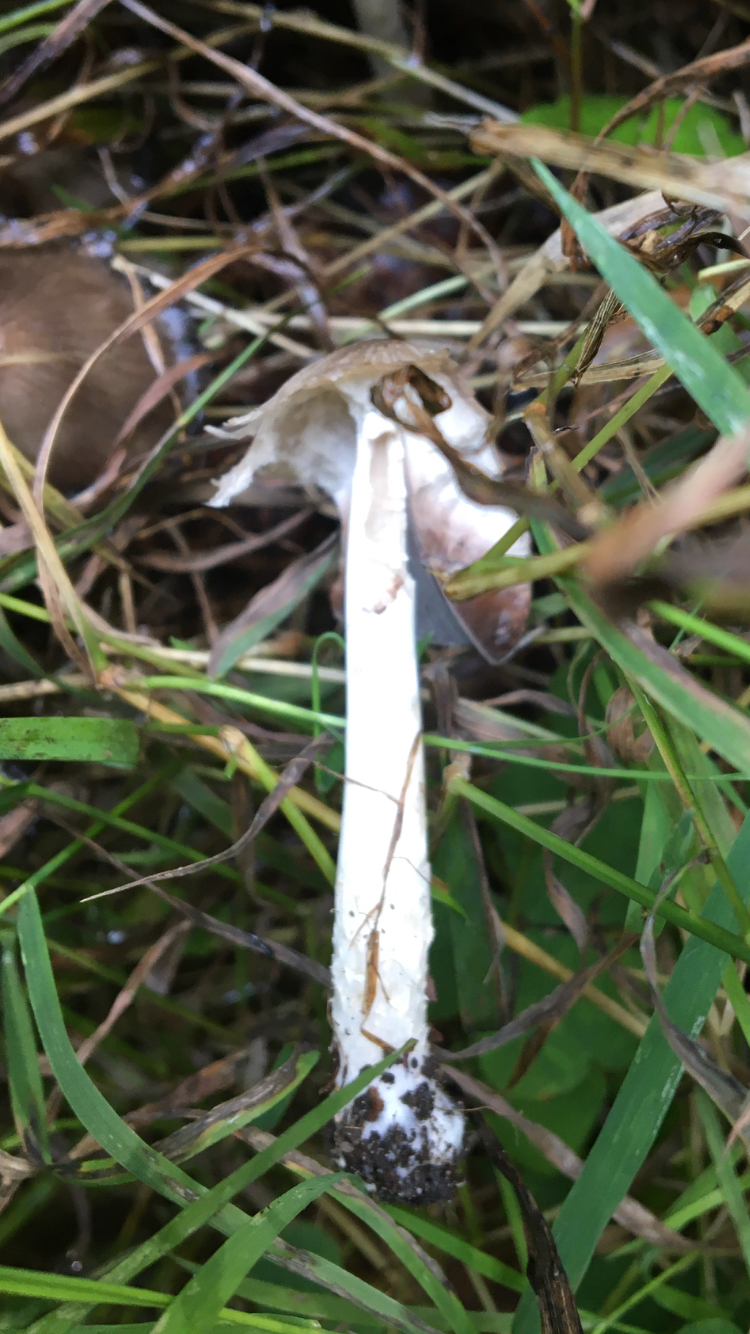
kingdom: Fungi
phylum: Basidiomycota
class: Agaricomycetes
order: Agaricales
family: Psathyrellaceae
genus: Coprinopsis
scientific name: Coprinopsis
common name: blækhat
